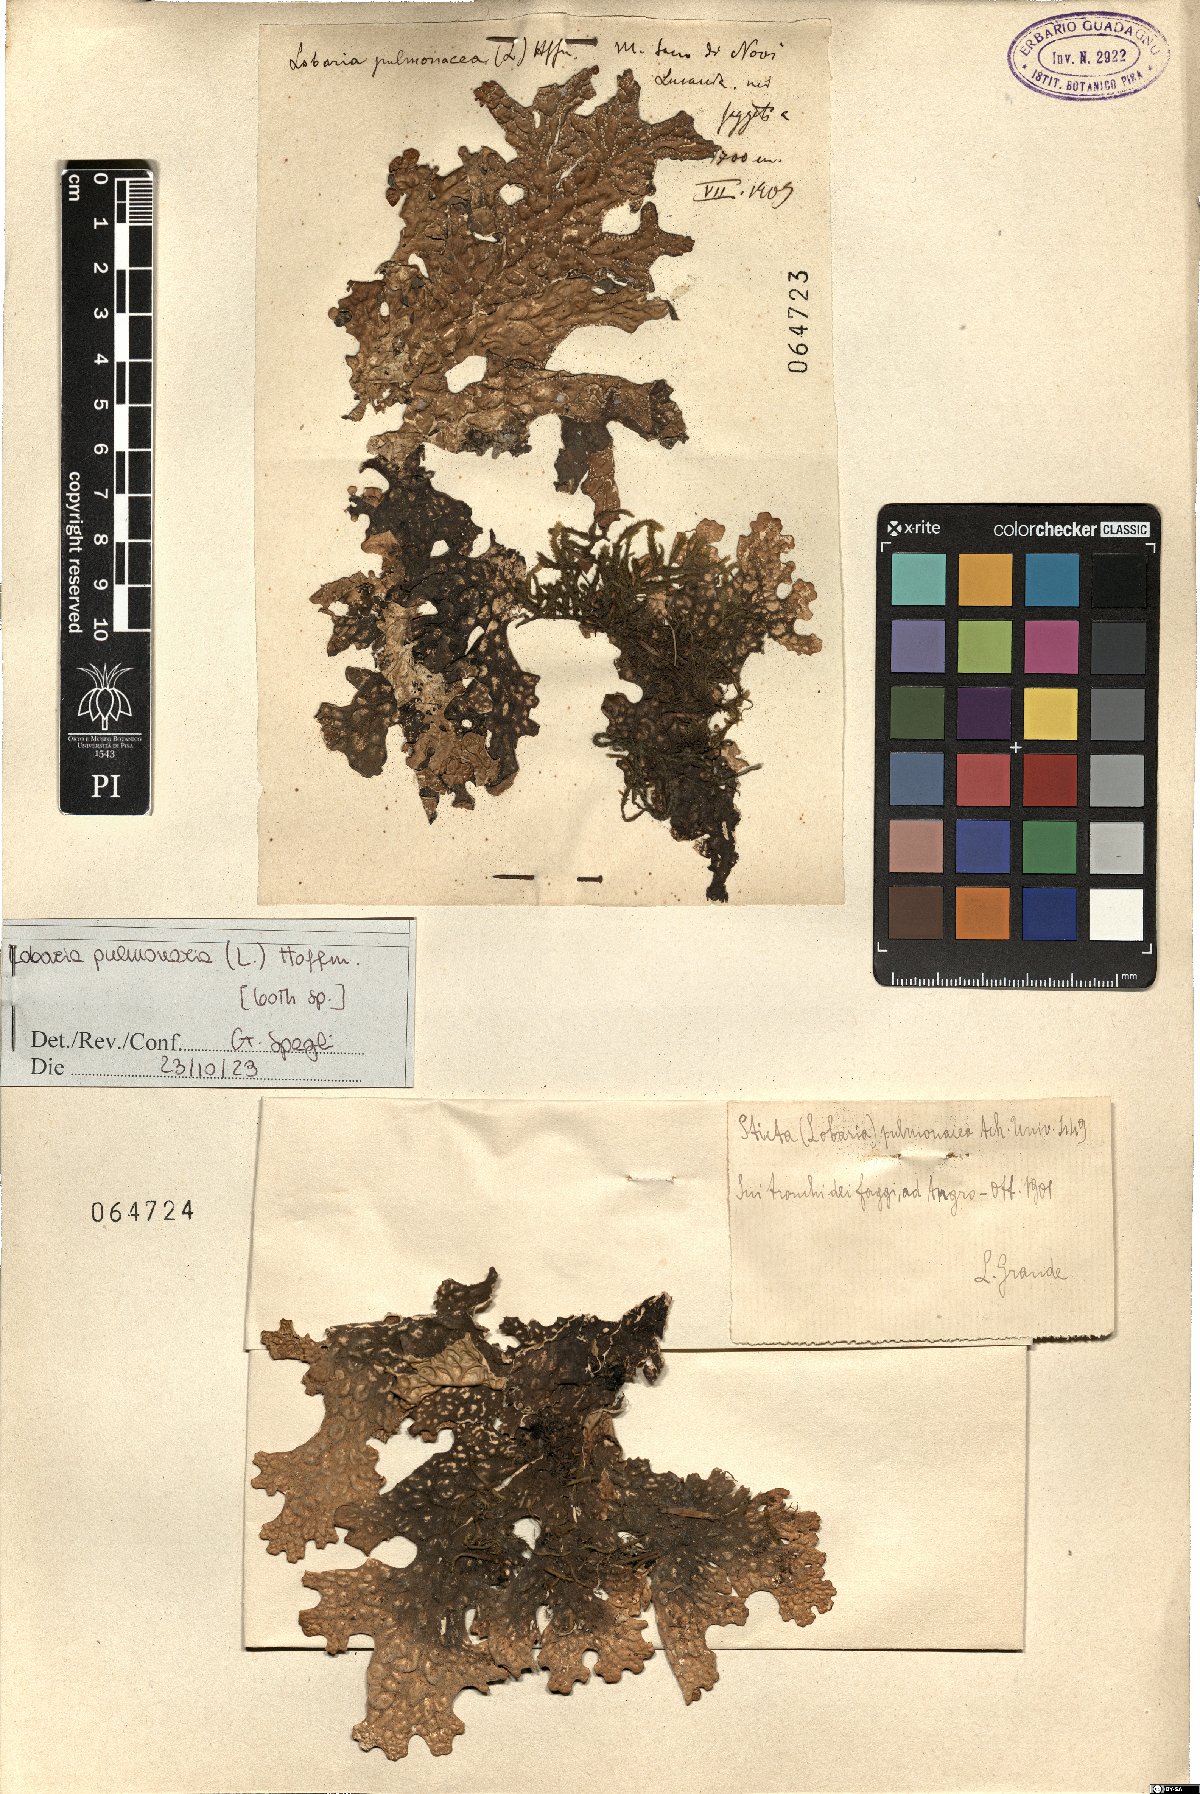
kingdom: Fungi
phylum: Ascomycota
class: Lecanoromycetes
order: Peltigerales
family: Lobariaceae
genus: Lobaria
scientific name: Lobaria pulmonaria
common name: Lungwort
